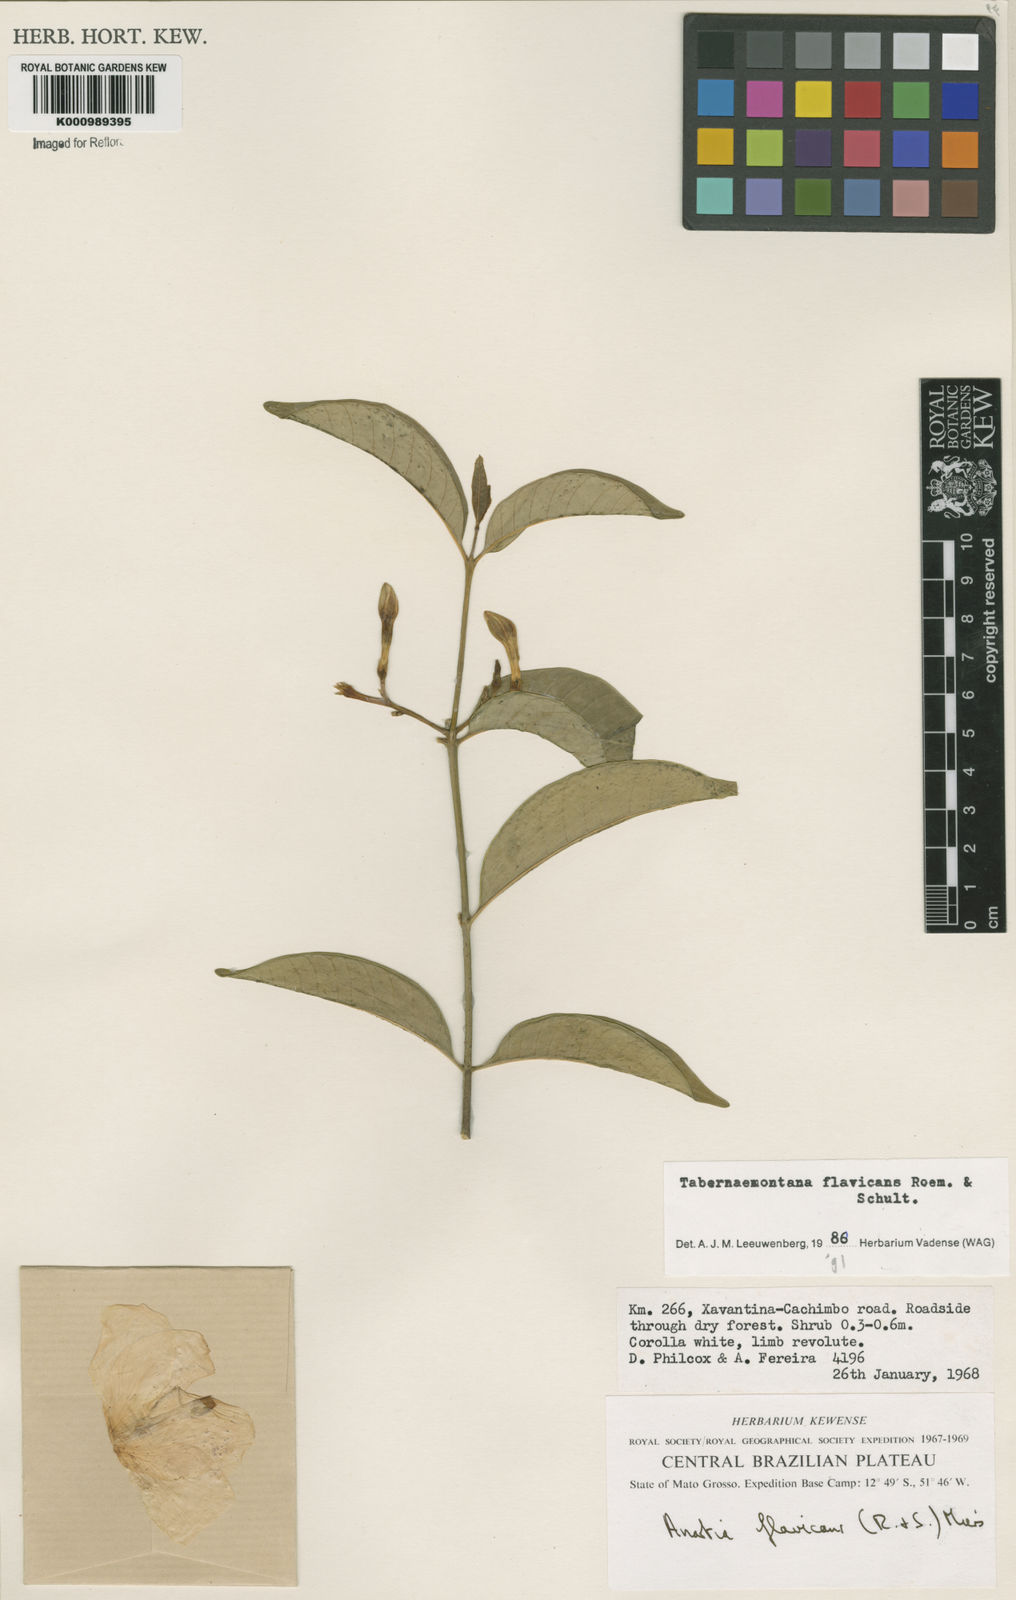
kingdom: Plantae
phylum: Tracheophyta
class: Magnoliopsida
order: Gentianales
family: Apocynaceae
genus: Tabernaemontana
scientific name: Tabernaemontana flavicans
